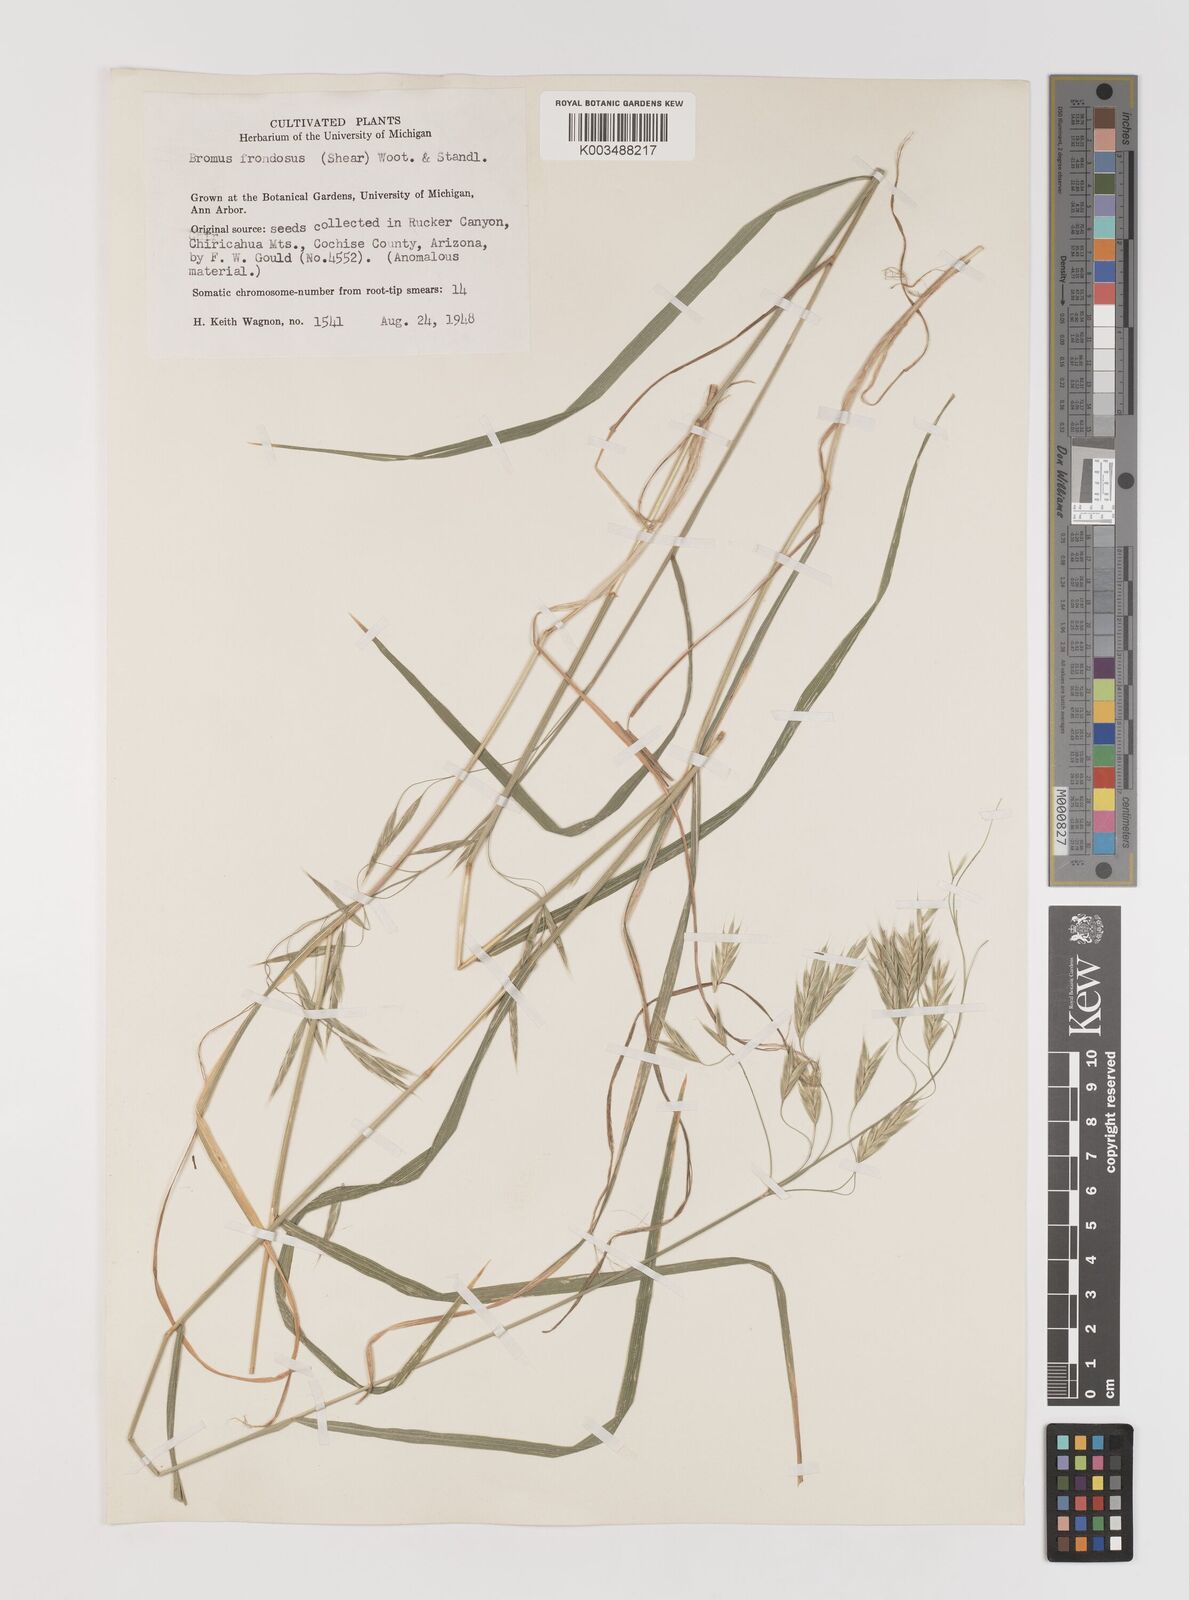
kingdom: Plantae
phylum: Tracheophyta
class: Liliopsida
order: Poales
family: Poaceae
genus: Bromus
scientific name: Bromus frondosus
